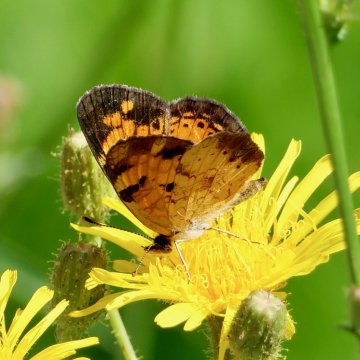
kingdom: Animalia
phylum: Arthropoda
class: Insecta
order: Lepidoptera
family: Nymphalidae
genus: Phyciodes
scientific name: Phyciodes tharos
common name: Northern Crescent
